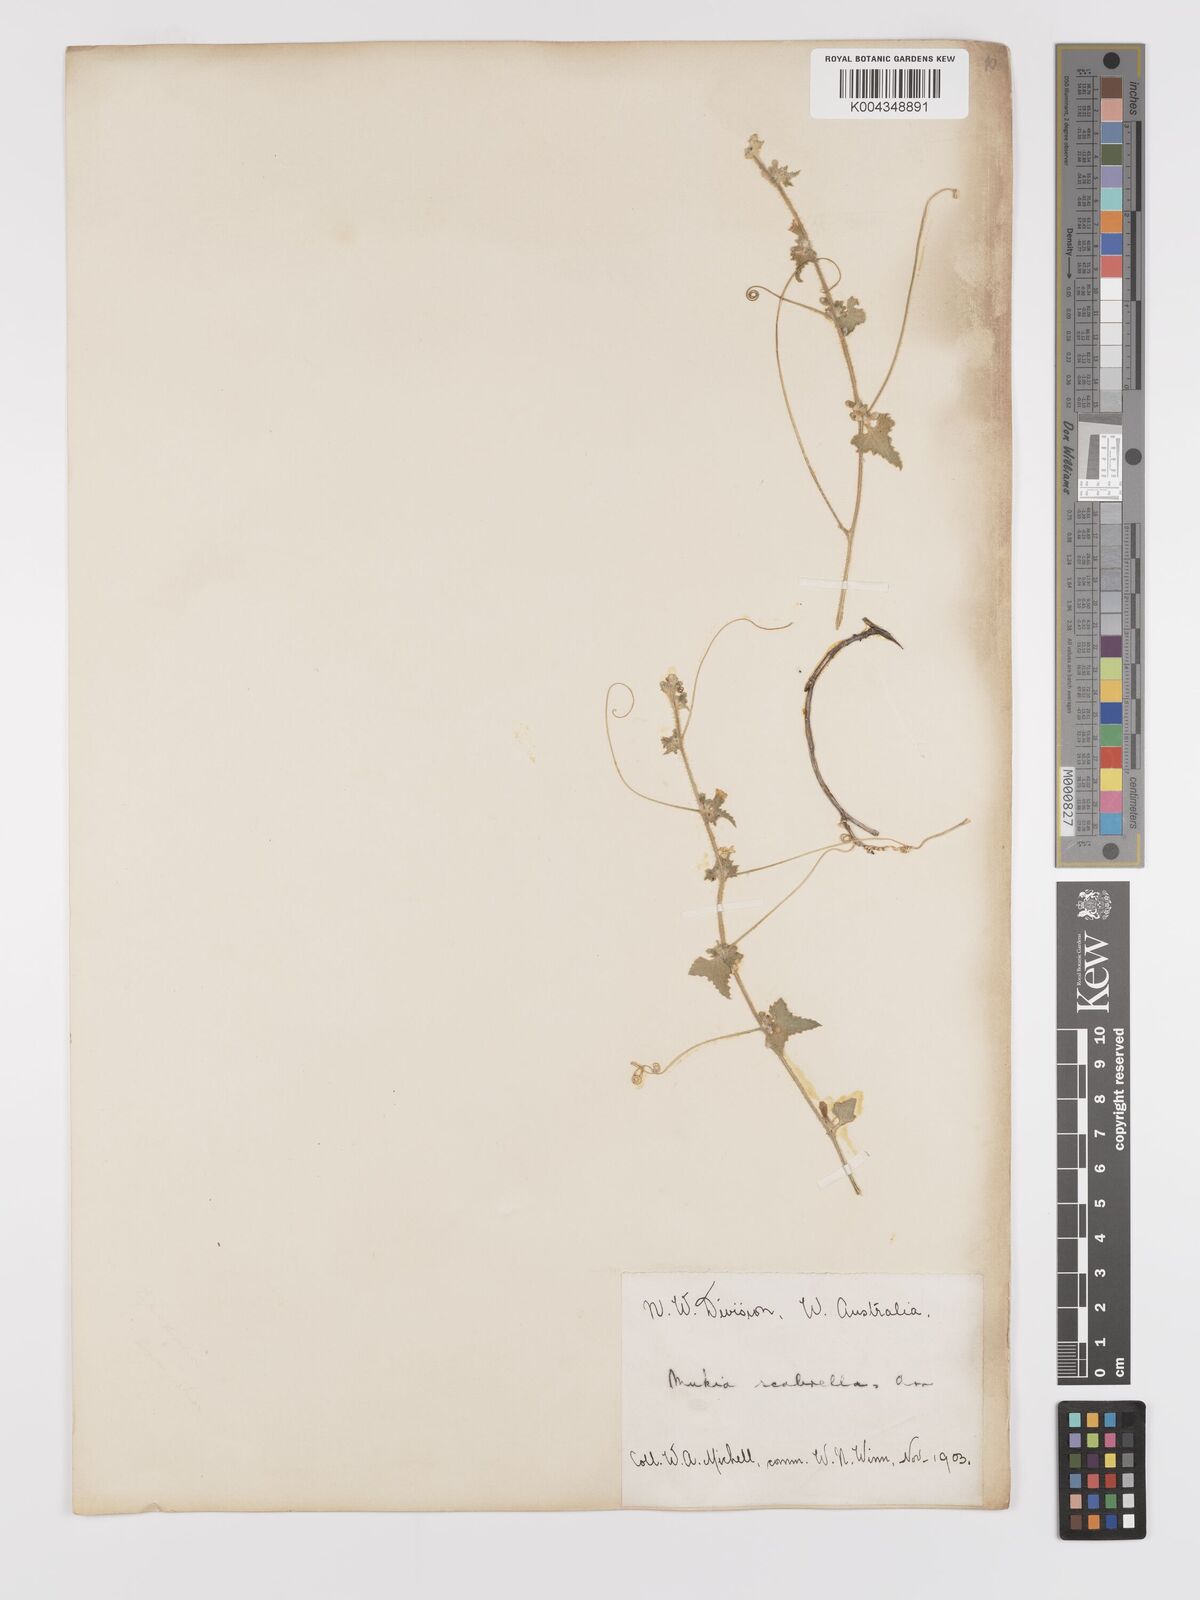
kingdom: Animalia
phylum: Arthropoda
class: Insecta
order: Lepidoptera
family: Crambidae
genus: Mukia
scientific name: Mukia
